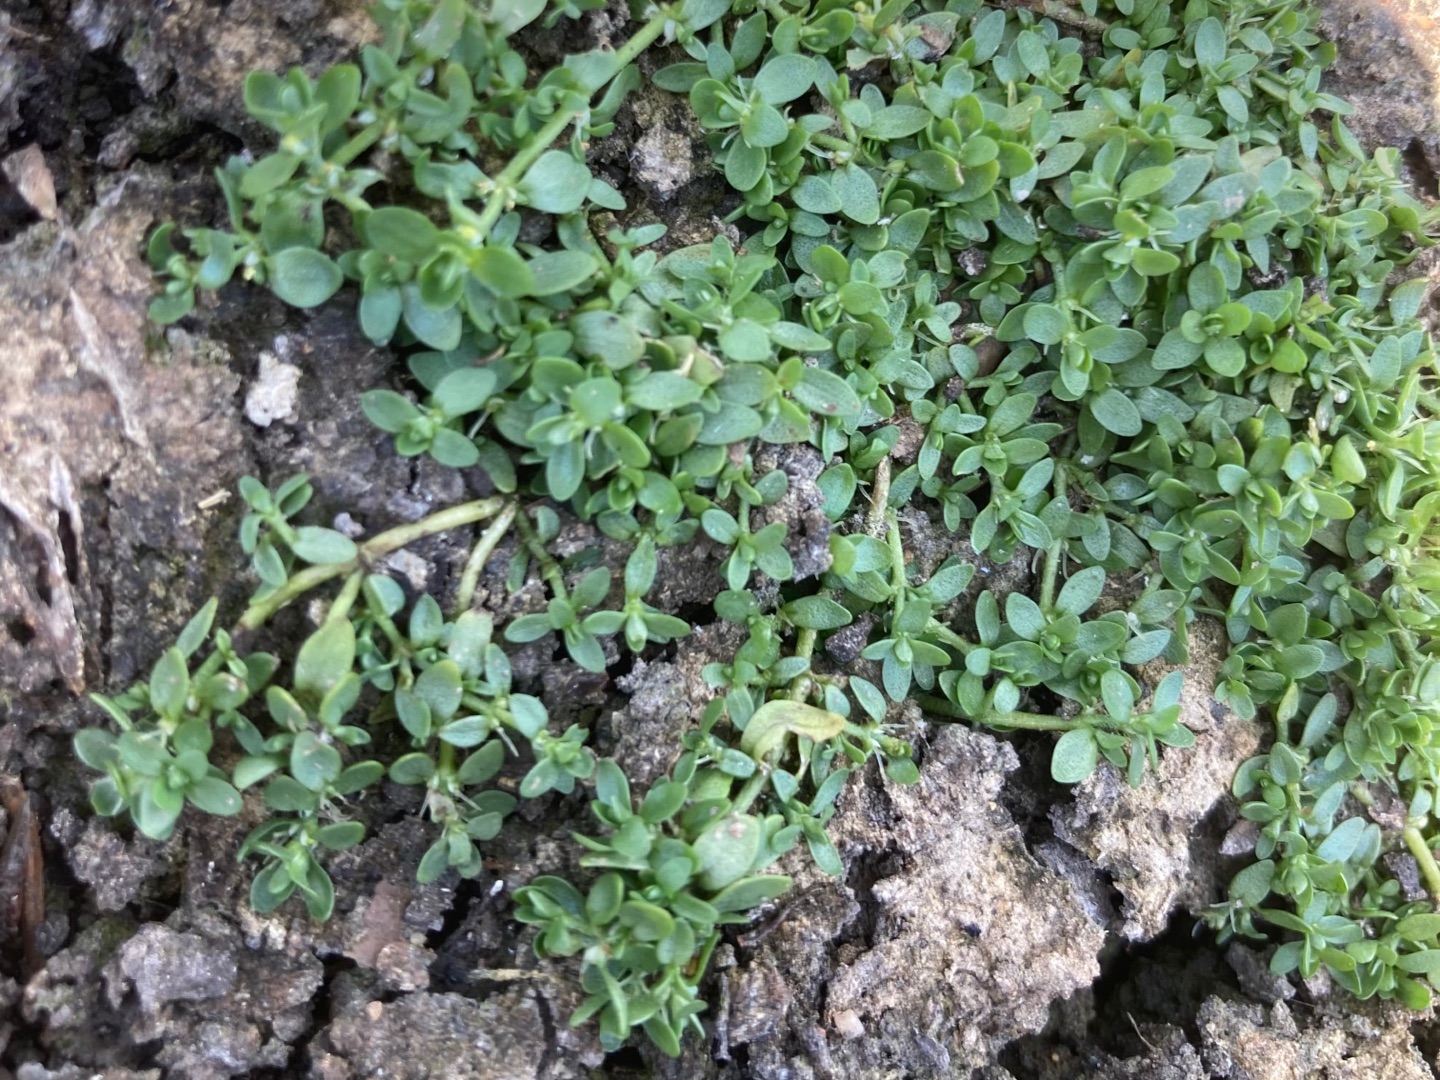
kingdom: Plantae
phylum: Tracheophyta
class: Magnoliopsida
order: Lamiales
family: Plantaginaceae
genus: Callitriche
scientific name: Callitriche
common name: Vandstjerneslægten
